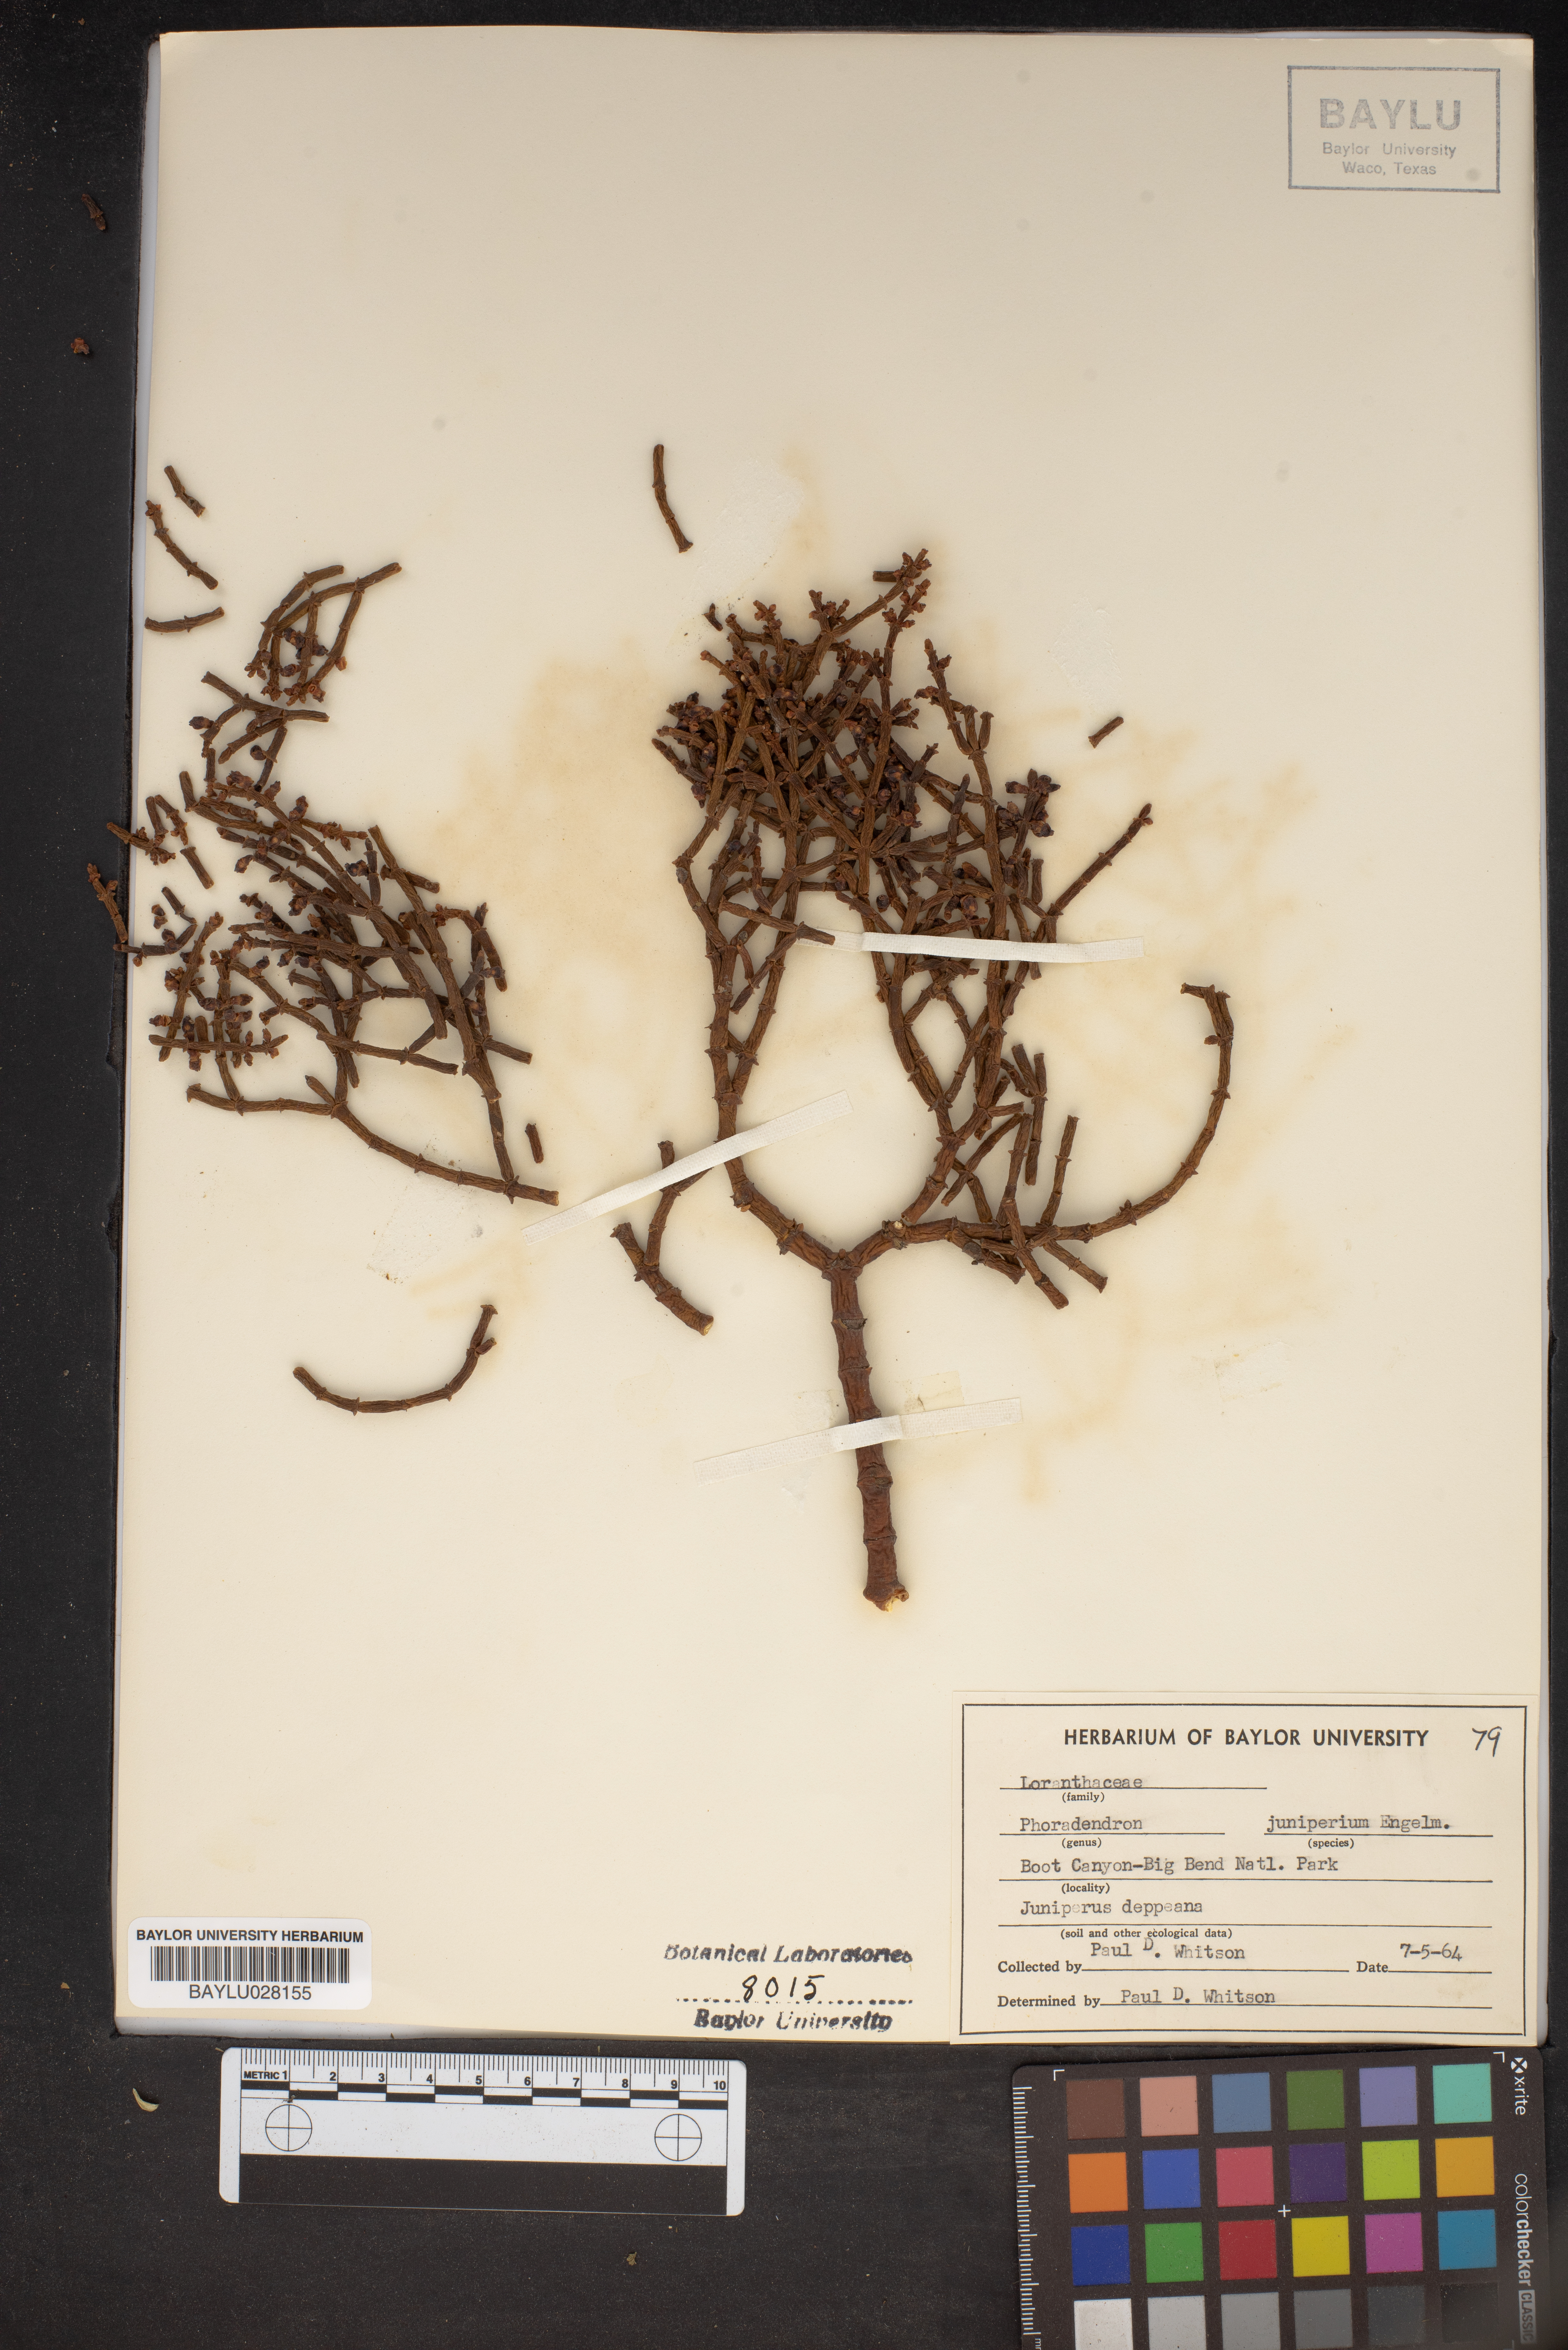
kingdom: Plantae
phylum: Tracheophyta
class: Magnoliopsida
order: Santalales
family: Viscaceae
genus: Phoradendron
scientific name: Phoradendron juniperinum
